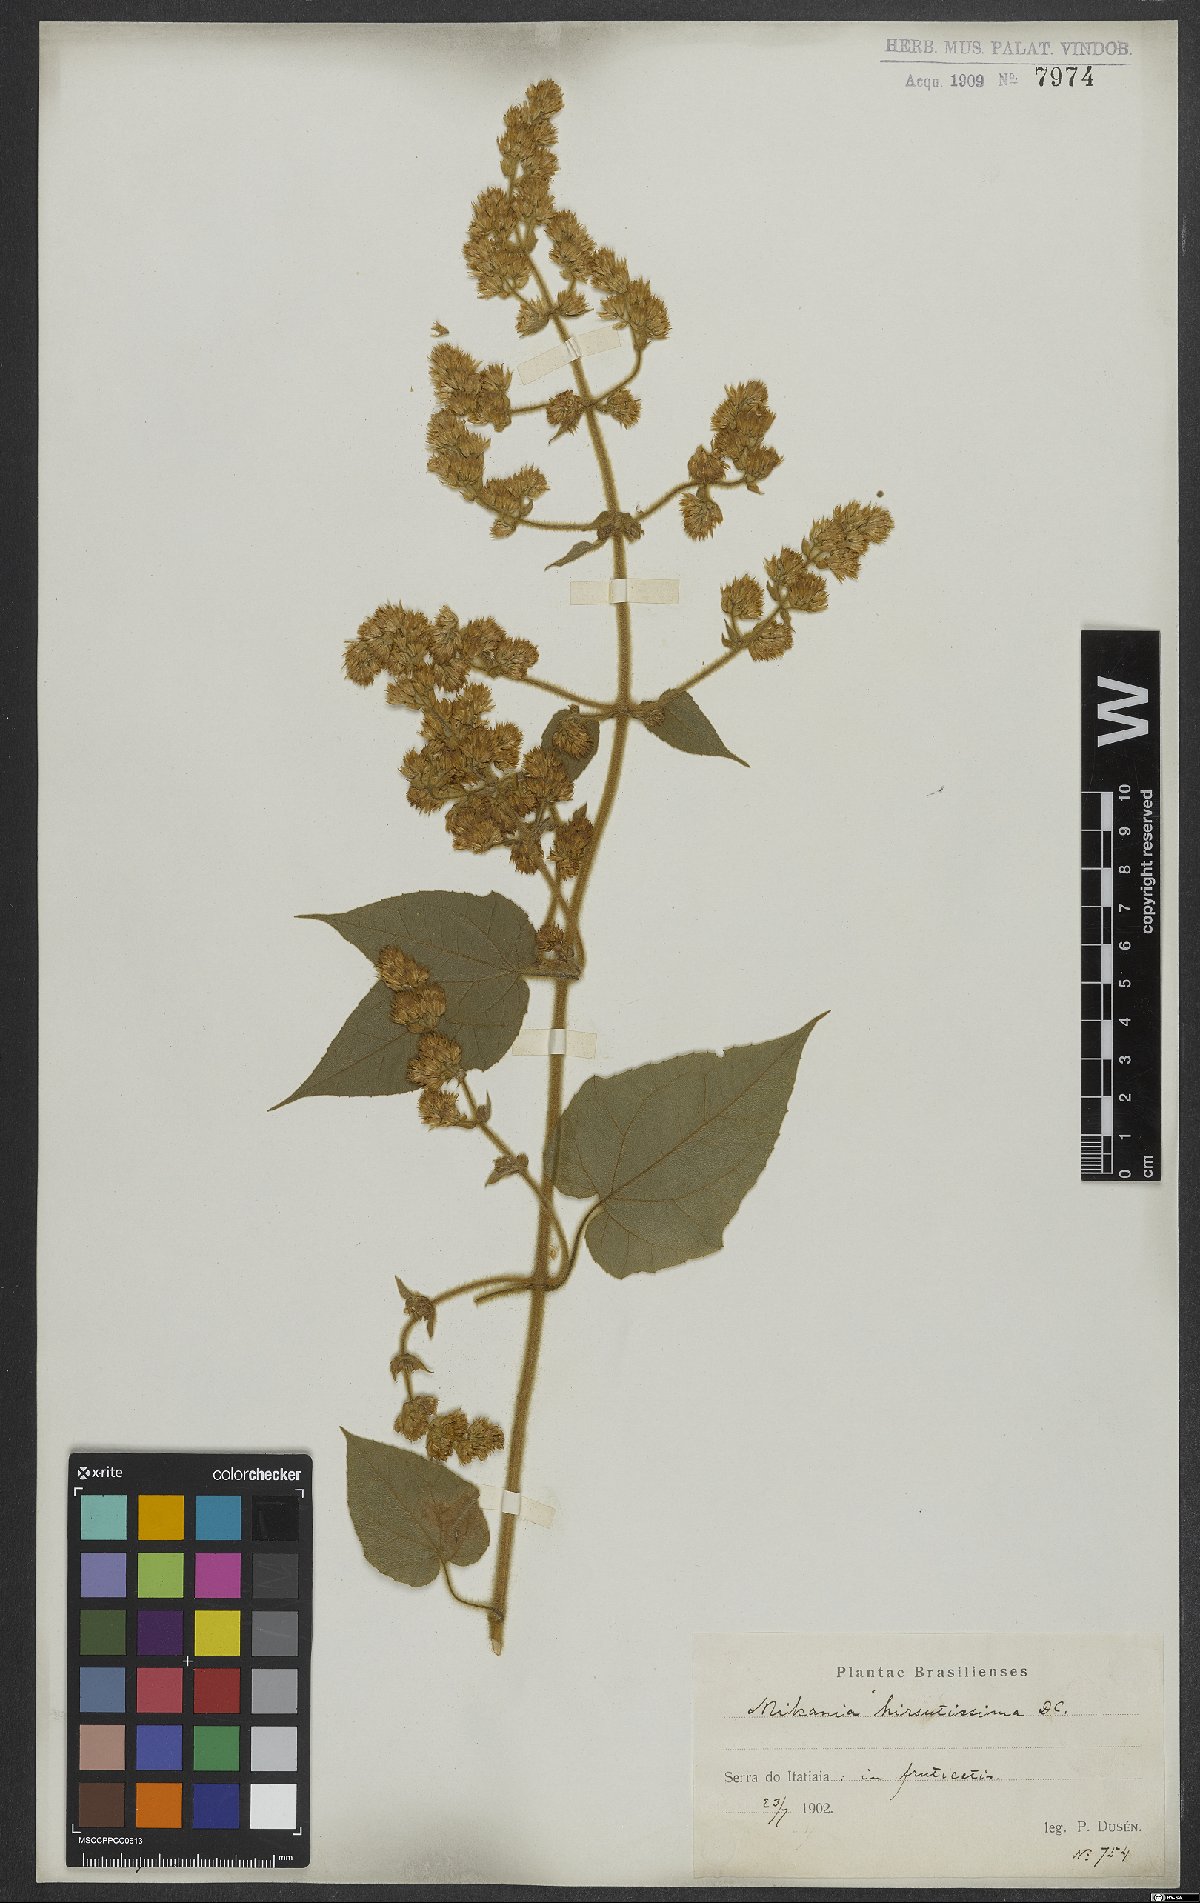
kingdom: Plantae
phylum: Tracheophyta
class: Magnoliopsida
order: Asterales
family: Asteraceae
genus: Mikania
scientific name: Mikania banisteriae
